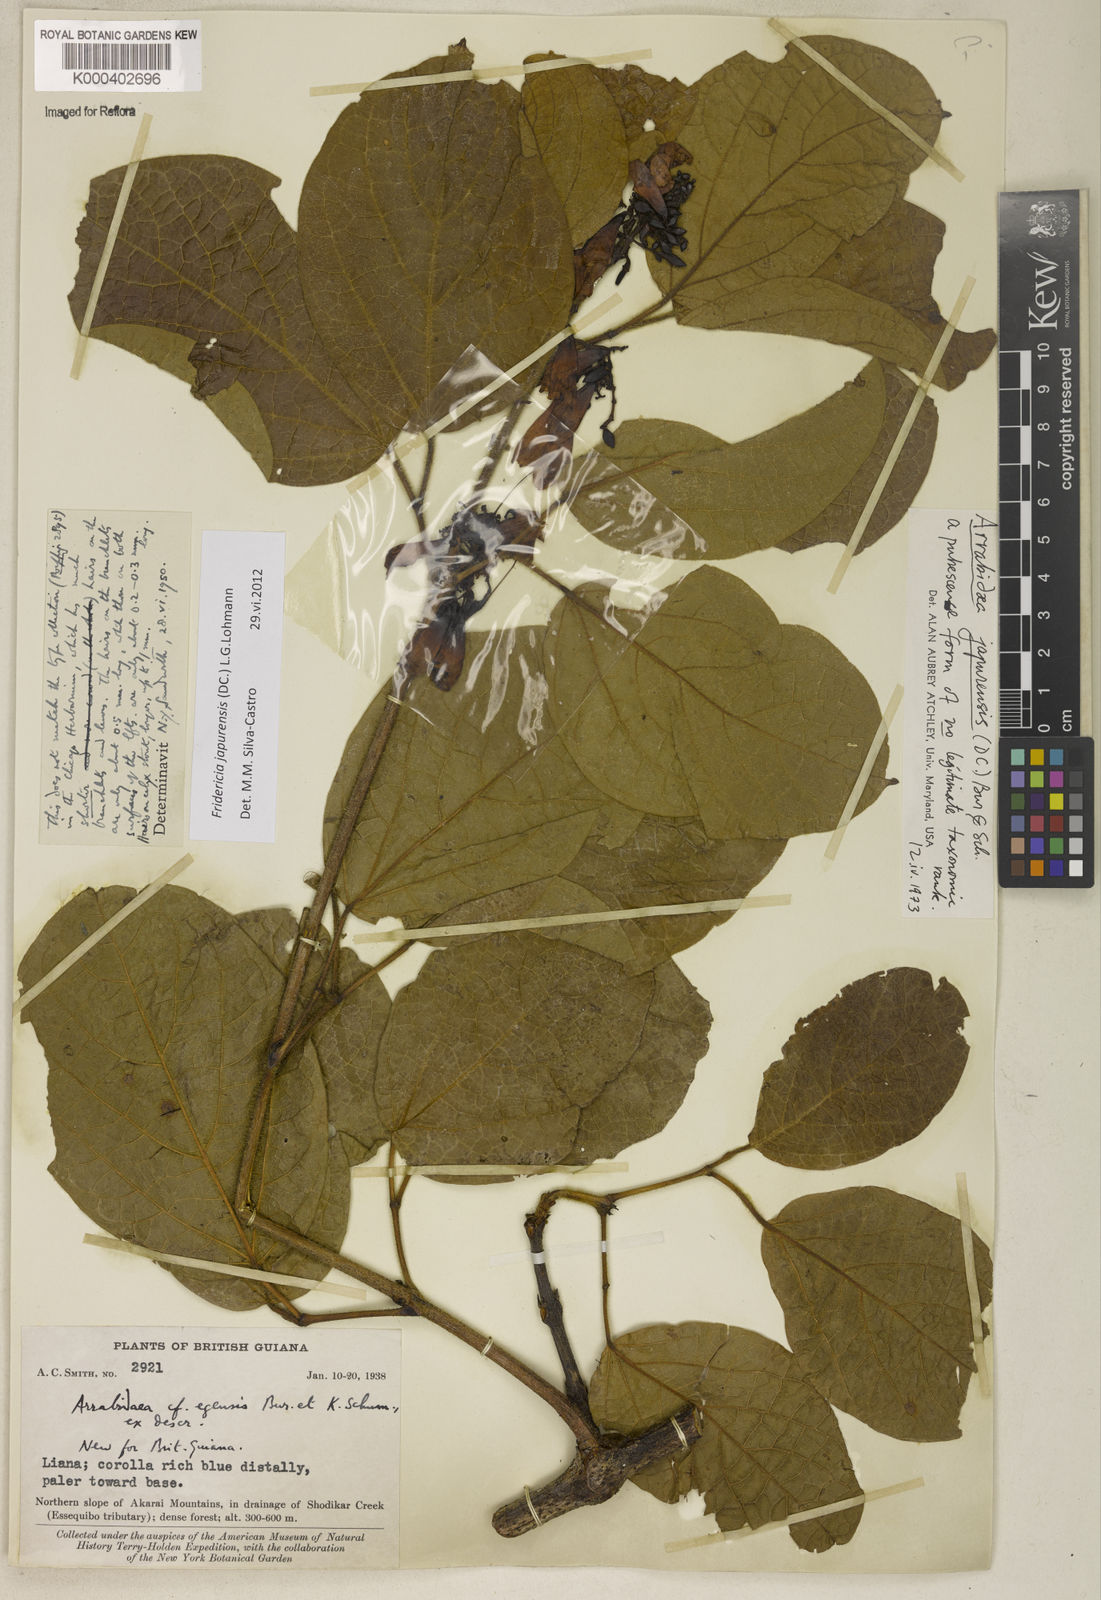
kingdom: Plantae
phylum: Tracheophyta
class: Magnoliopsida
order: Lamiales
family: Bignoniaceae
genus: Fridericia
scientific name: Fridericia japurensis
